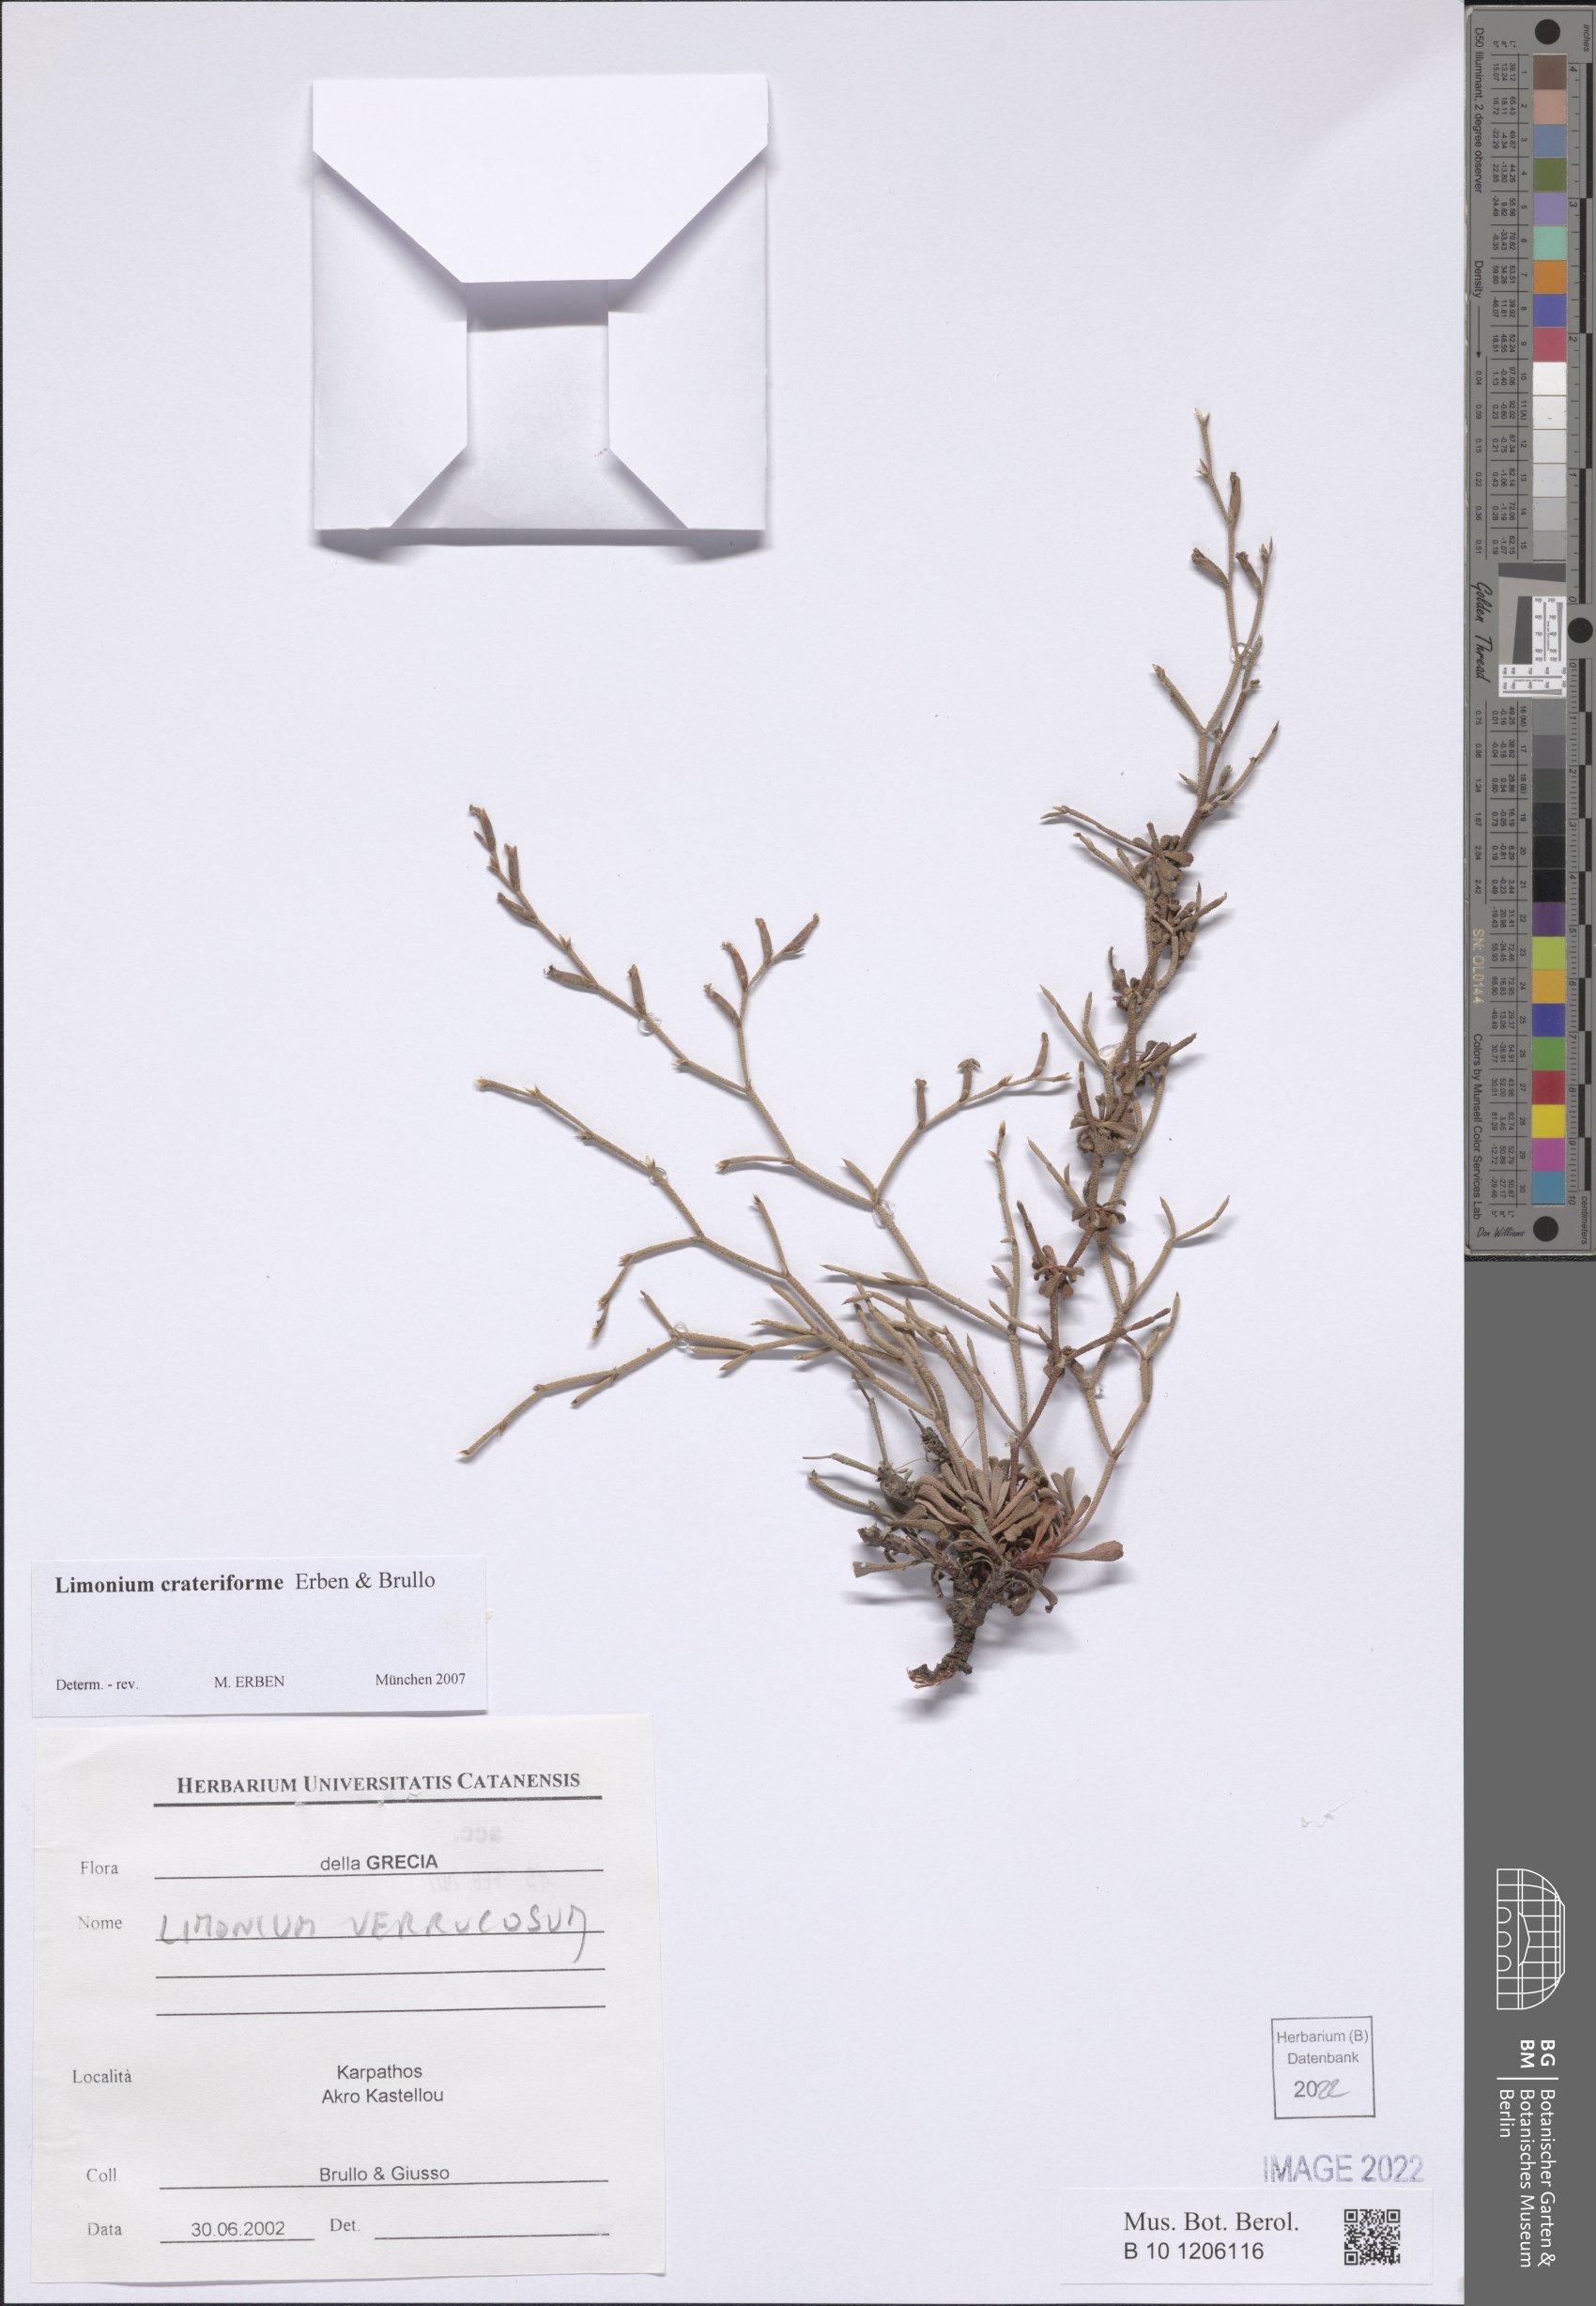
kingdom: Plantae
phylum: Tracheophyta
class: Magnoliopsida
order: Caryophyllales
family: Plumbaginaceae
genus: Limonium
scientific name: Limonium crateriforme
